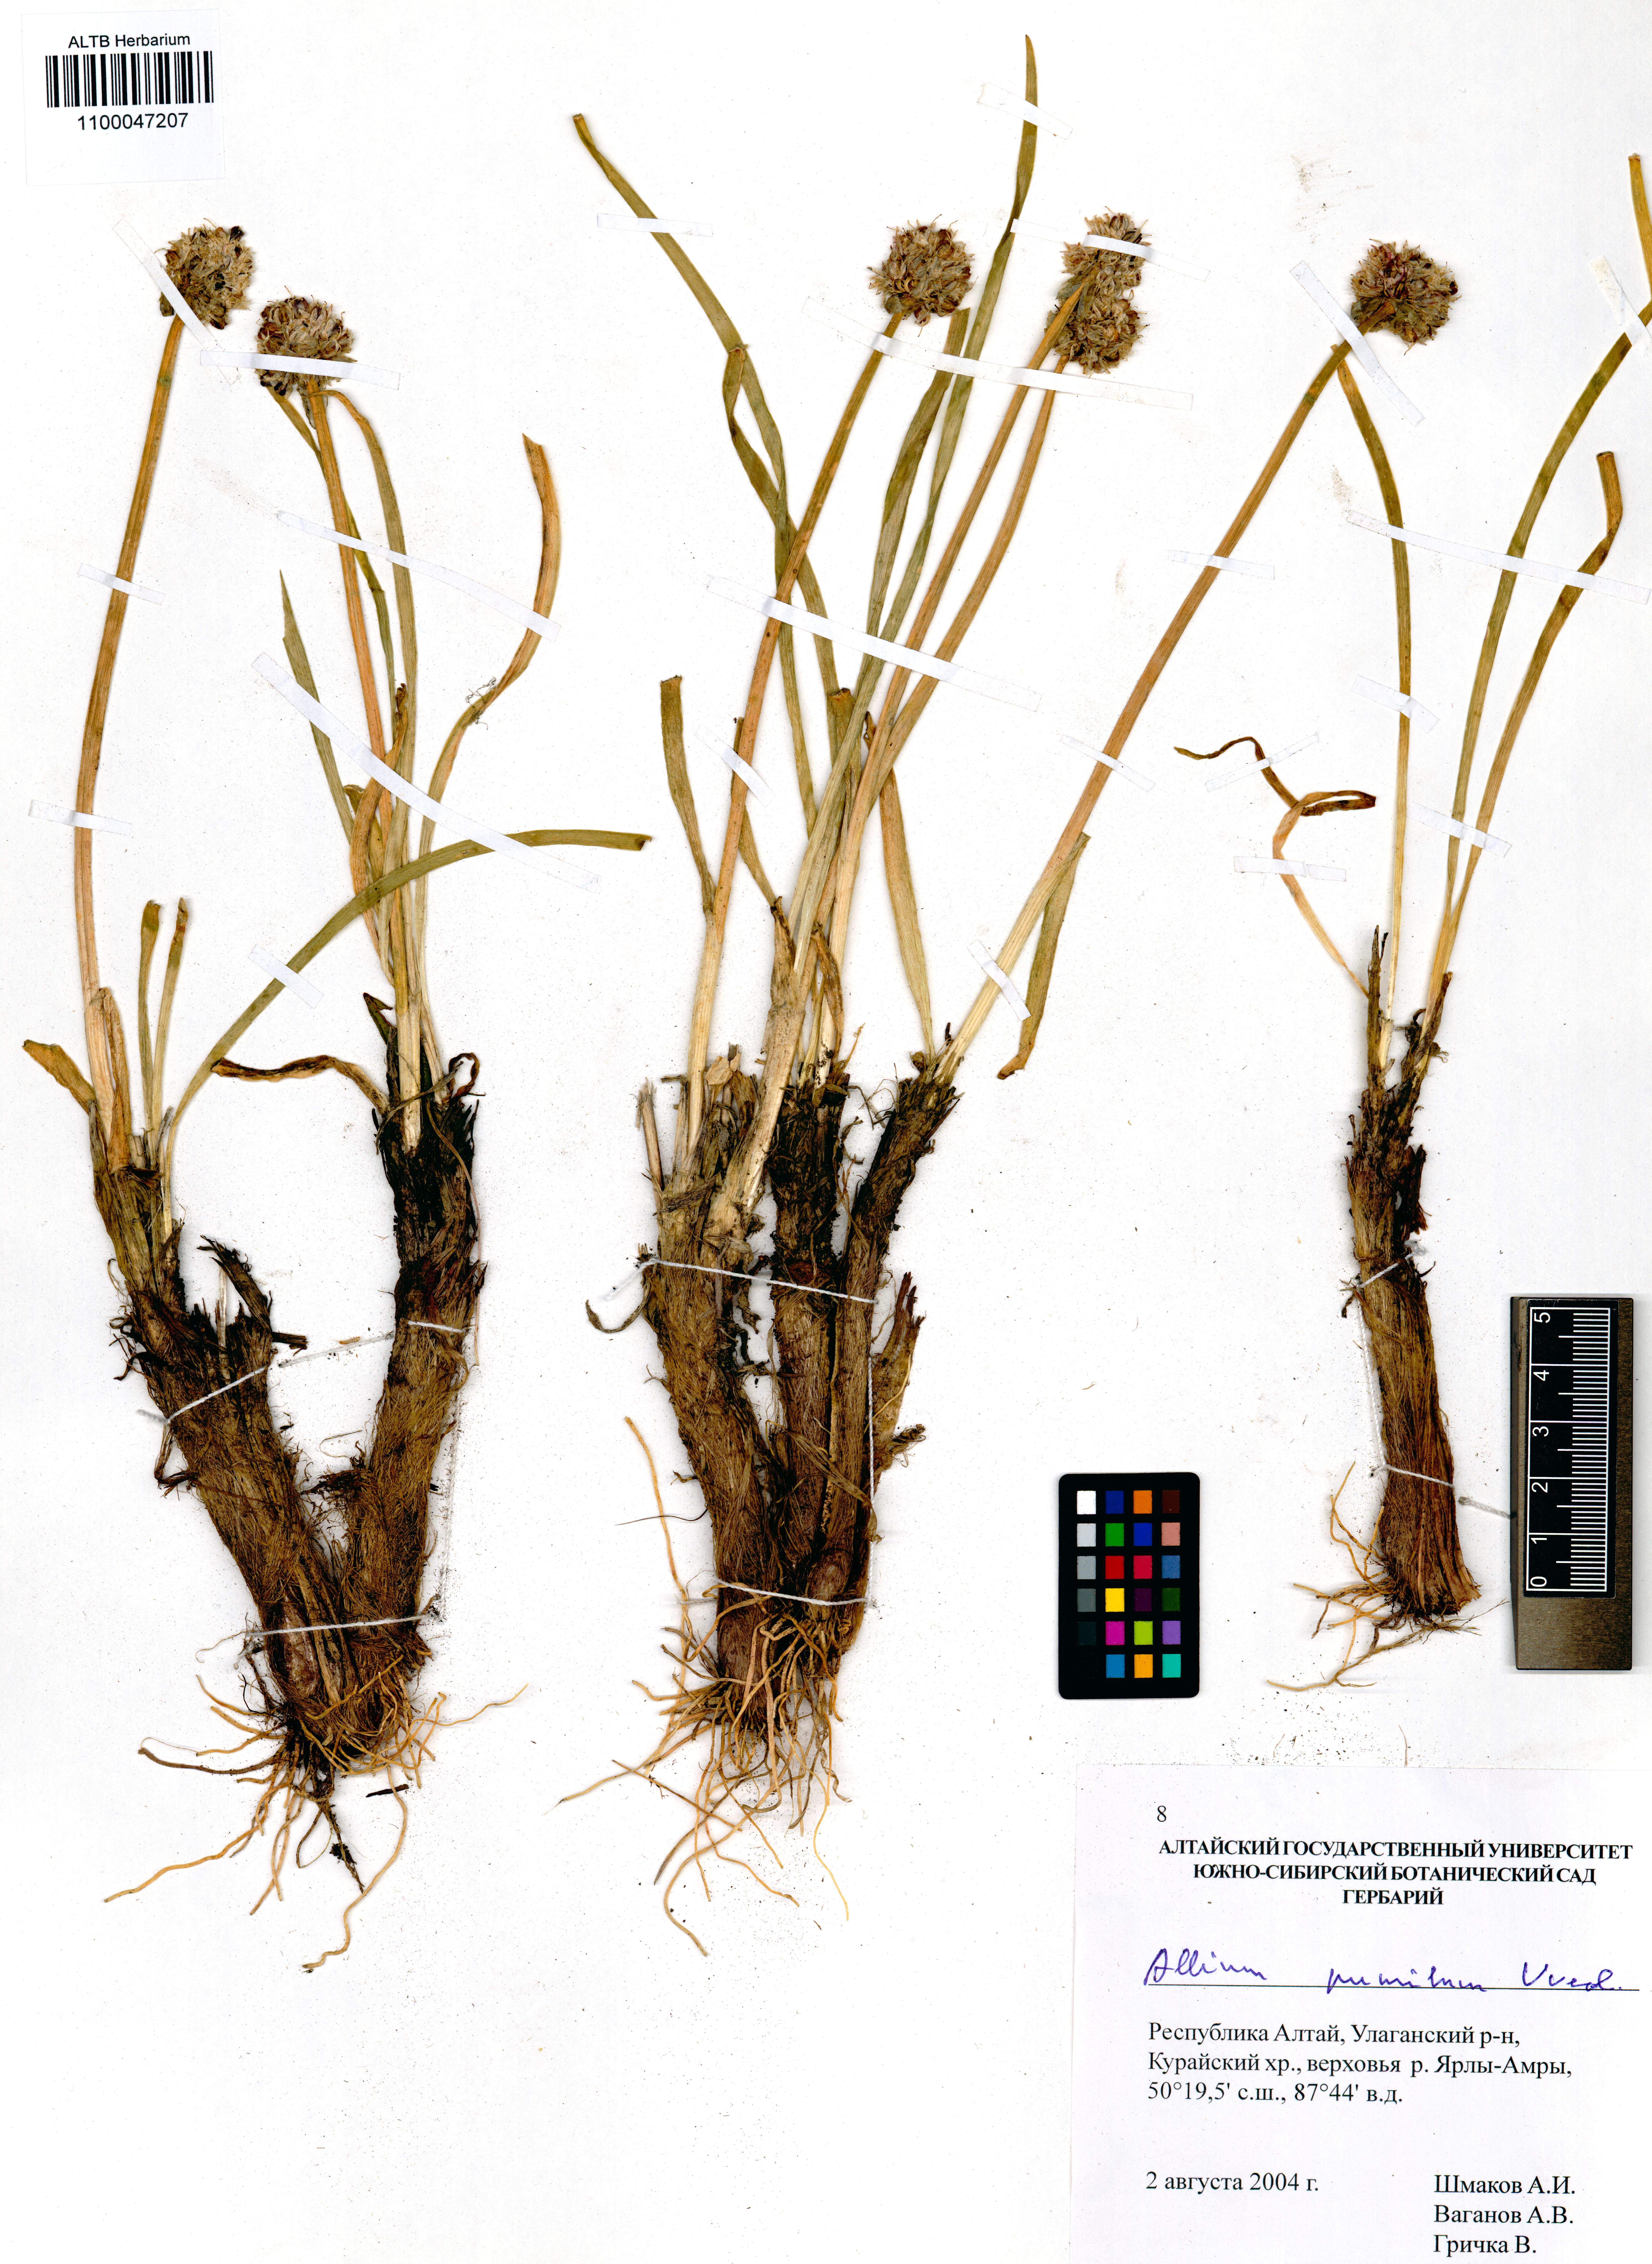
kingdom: Plantae
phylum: Tracheophyta
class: Liliopsida
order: Asparagales
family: Amaryllidaceae
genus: Allium
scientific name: Allium pumilum
